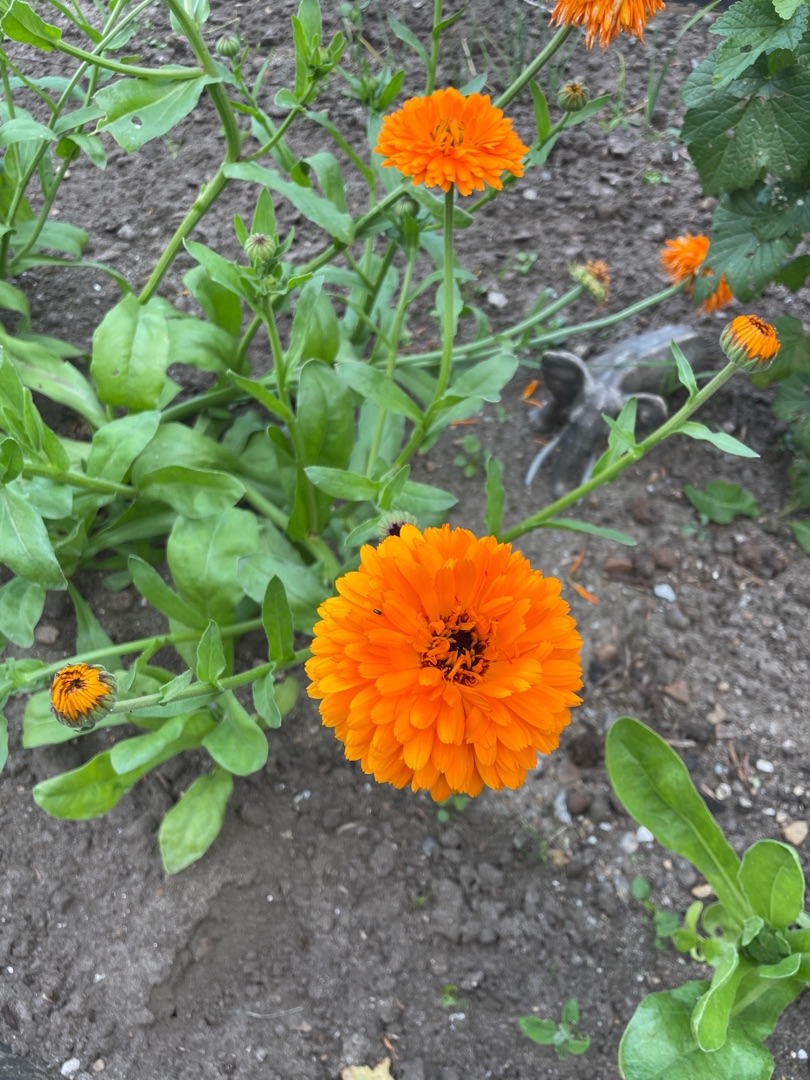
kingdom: Plantae
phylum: Tracheophyta
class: Magnoliopsida
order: Asterales
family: Asteraceae
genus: Calendula
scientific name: Calendula officinalis
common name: Have-morgenfrue
